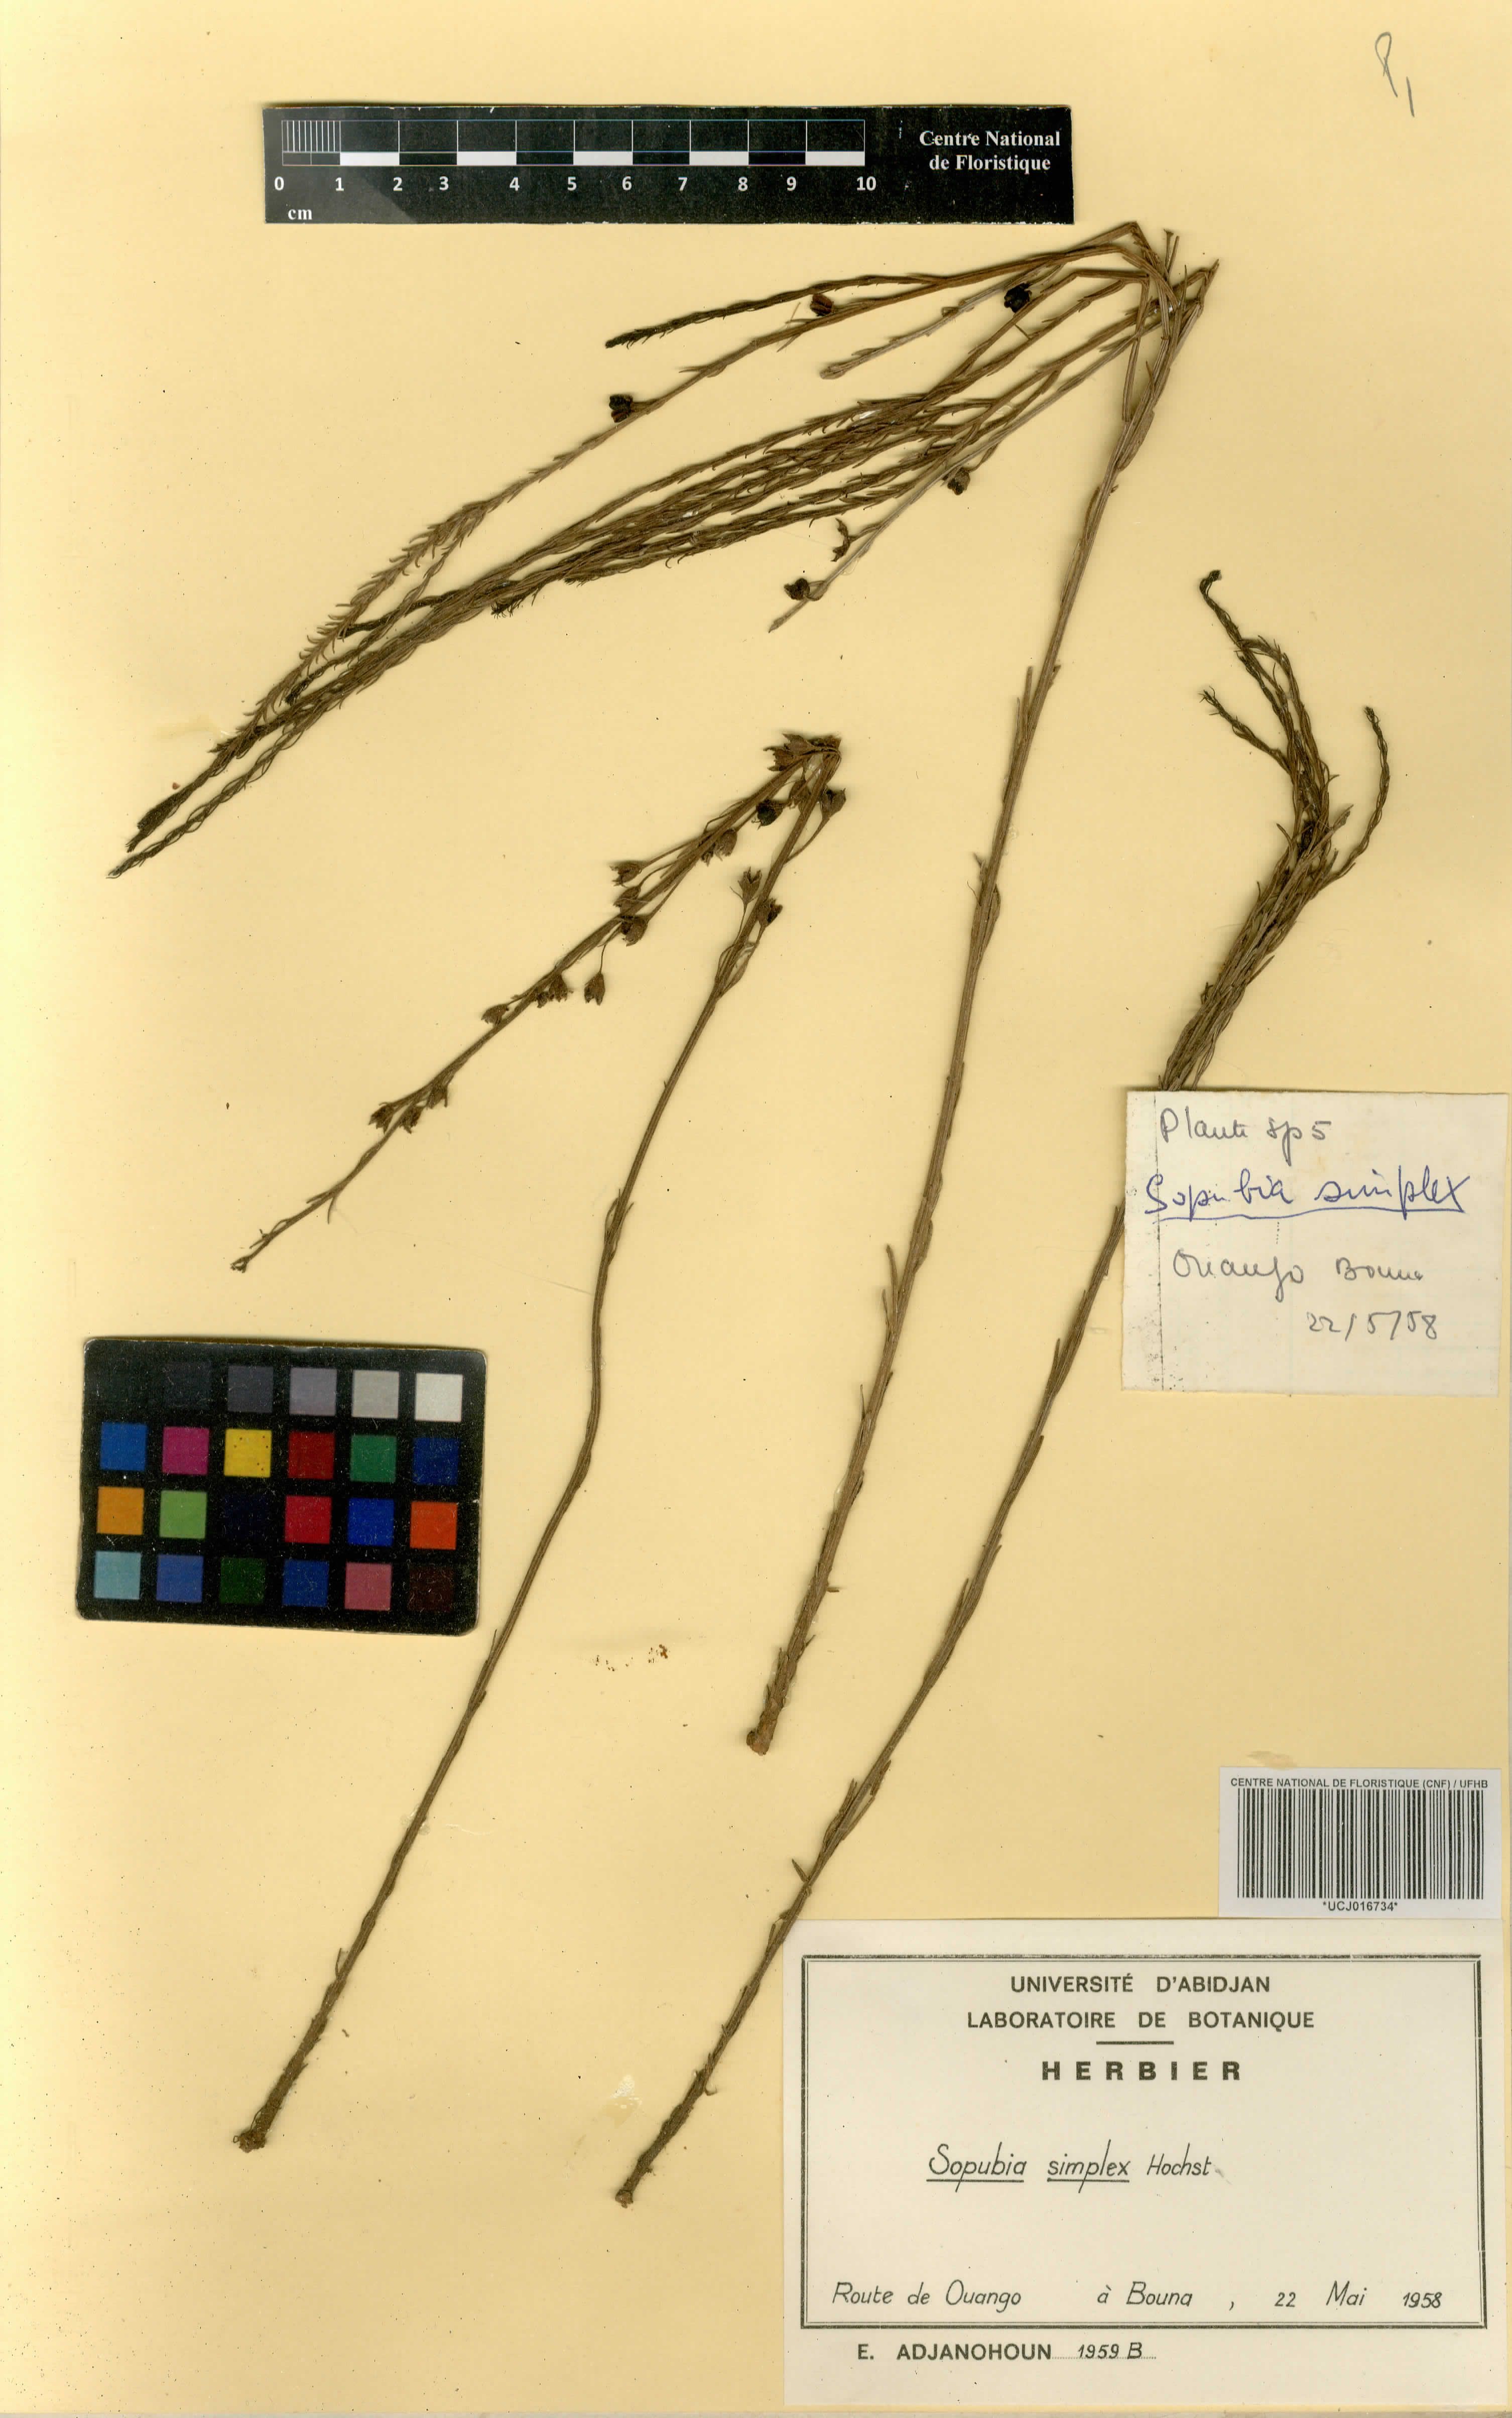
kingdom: Plantae
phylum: Tracheophyta
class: Magnoliopsida
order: Lamiales
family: Orobanchaceae
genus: Sopubia
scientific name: Sopubia simplex
